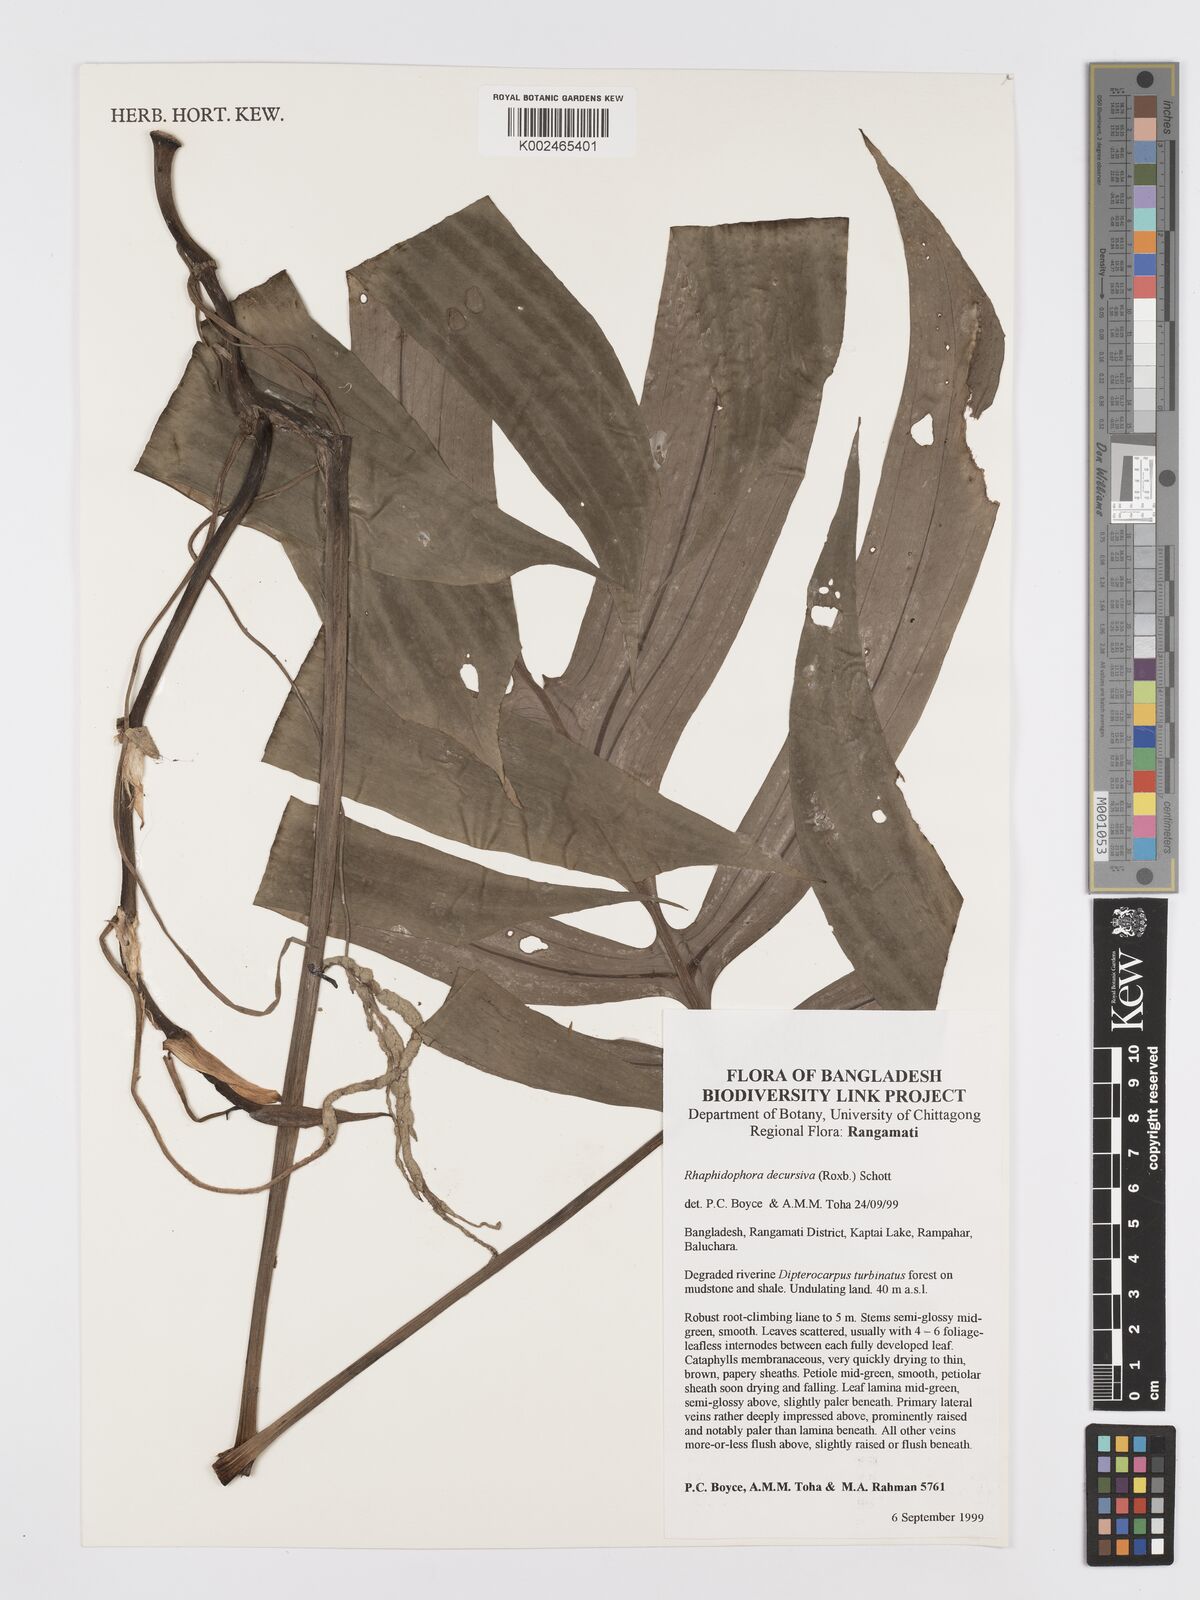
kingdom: Plantae
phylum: Tracheophyta
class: Liliopsida
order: Alismatales
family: Araceae
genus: Rhaphidophora
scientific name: Rhaphidophora decursiva
